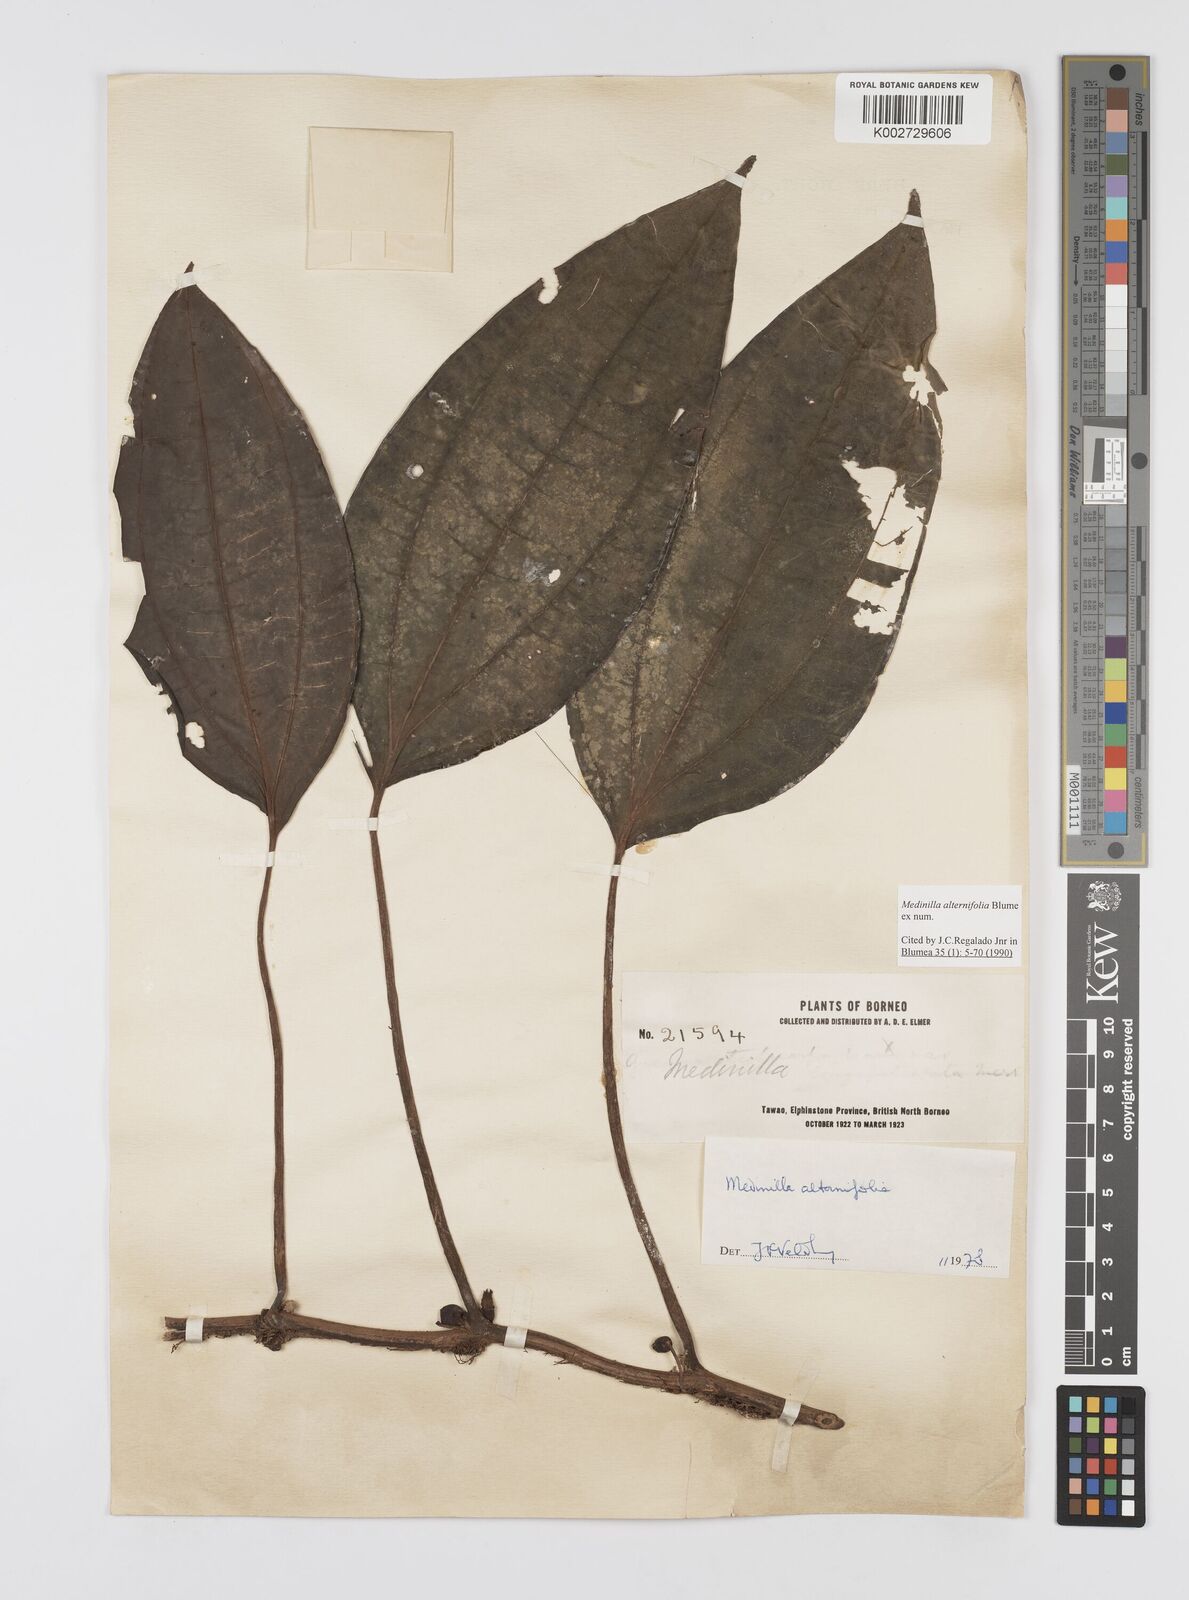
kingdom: Plantae
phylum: Tracheophyta
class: Magnoliopsida
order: Myrtales
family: Melastomataceae
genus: Heteroblemma
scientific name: Heteroblemma alternifolium
